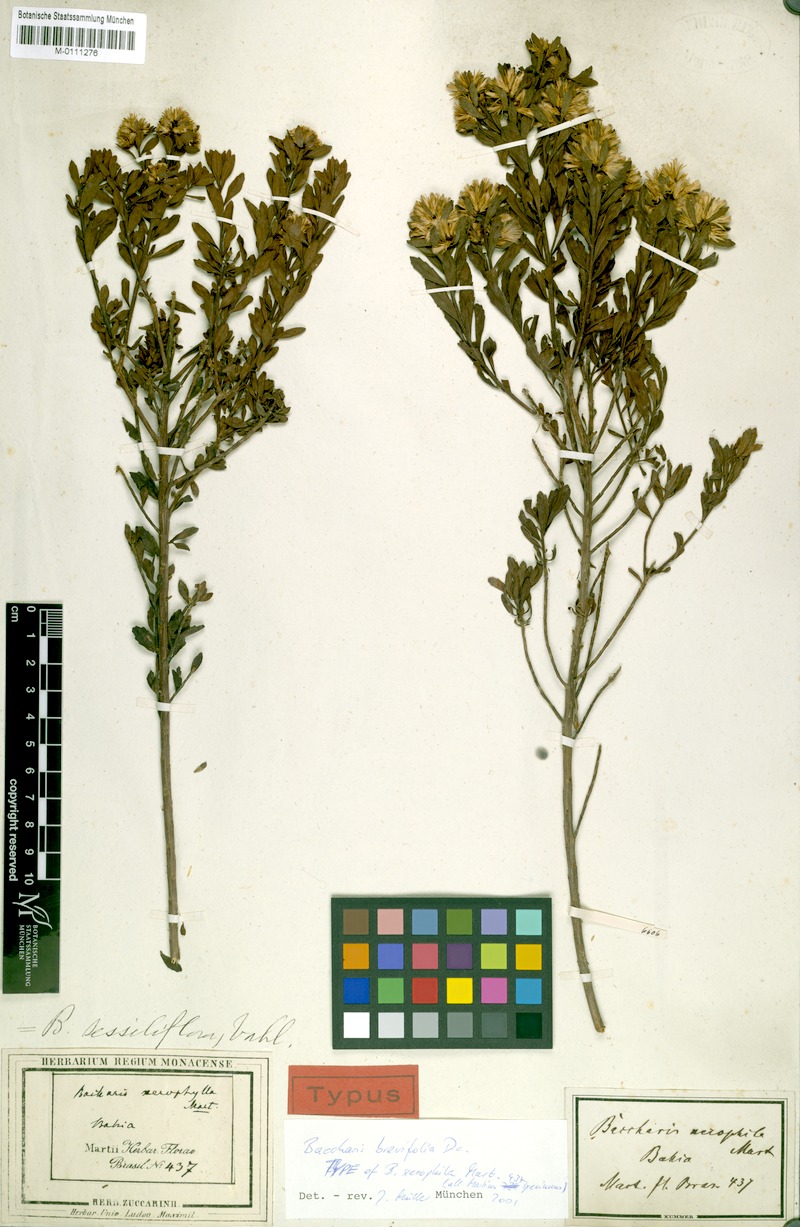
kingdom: Plantae
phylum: Tracheophyta
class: Magnoliopsida
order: Asterales
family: Asteraceae
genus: Baccharis
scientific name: Baccharis brevifolia
